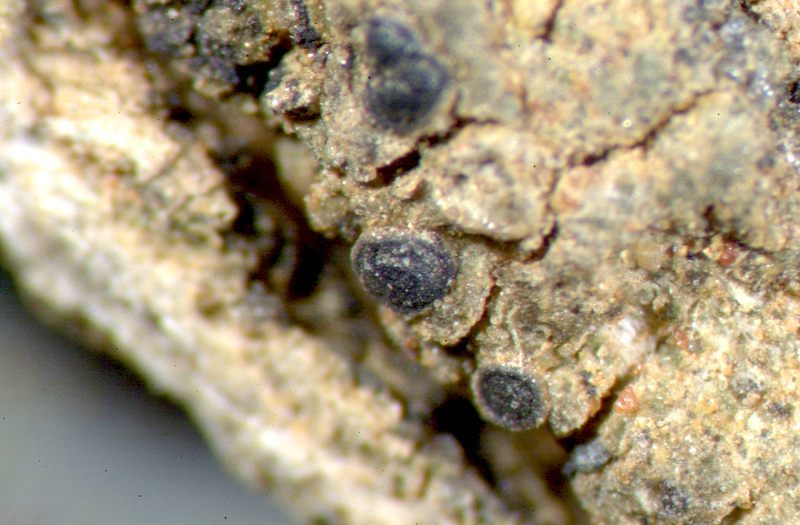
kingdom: Fungi
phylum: Ascomycota
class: Lecanoromycetes
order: Caliciales
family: Caliciaceae
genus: Amandinea
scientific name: Amandinea
